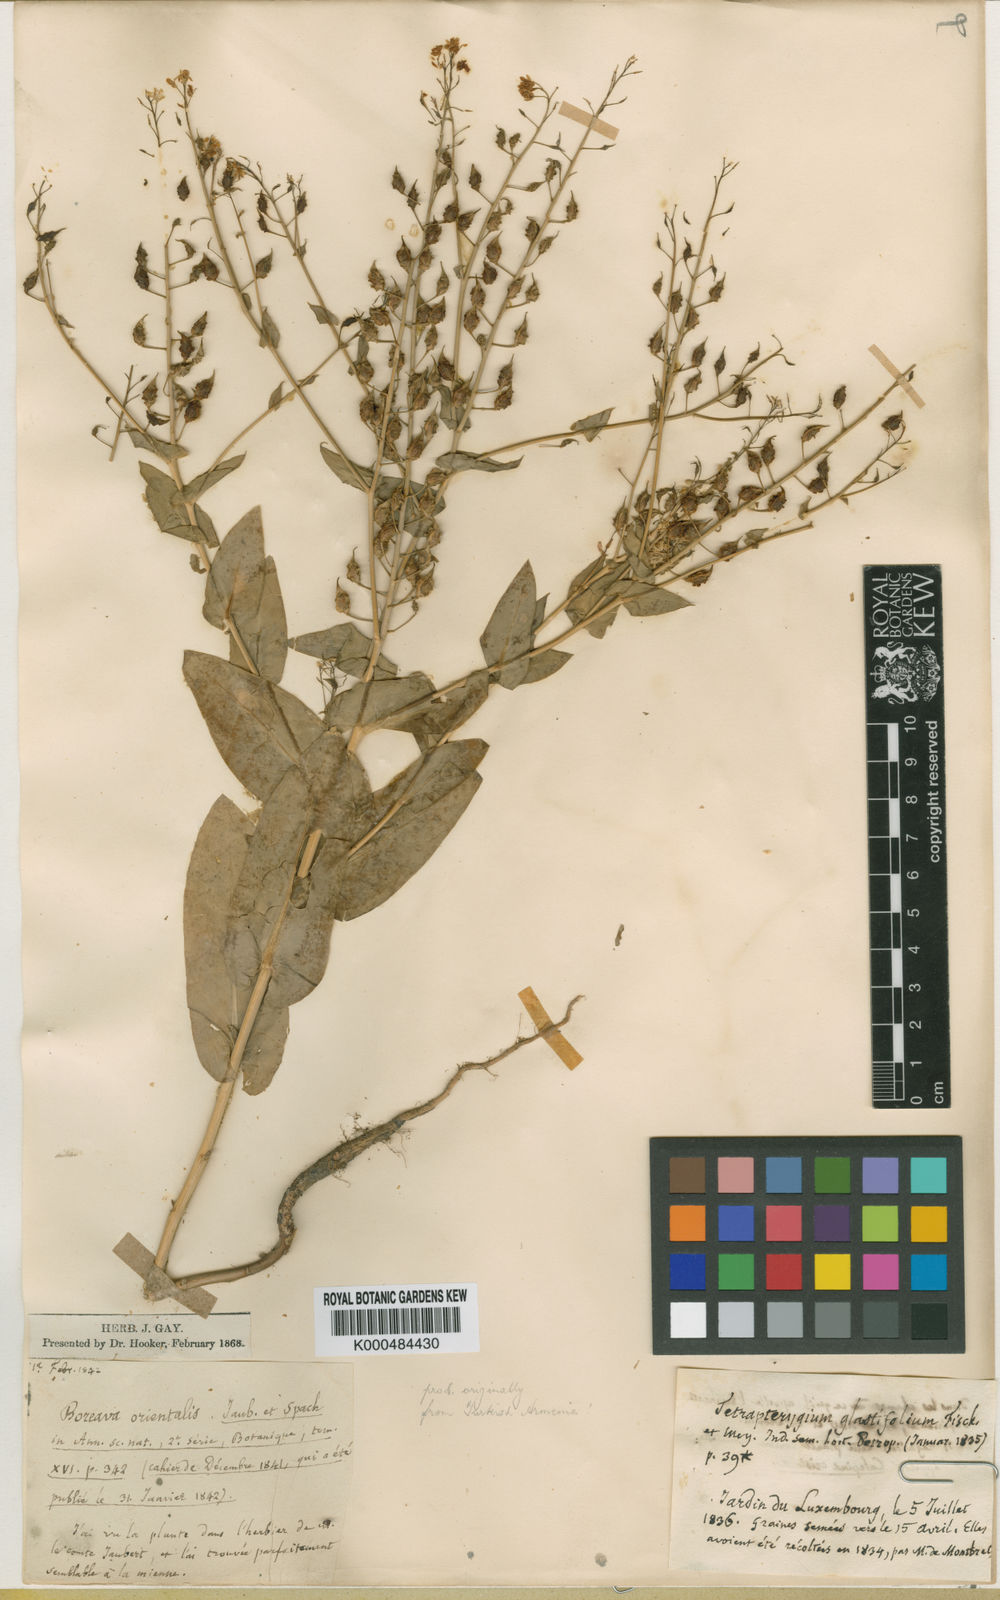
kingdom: Plantae
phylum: Tracheophyta
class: Magnoliopsida
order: Brassicales
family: Brassicaceae
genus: Isatis
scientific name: Isatis quadrialata
